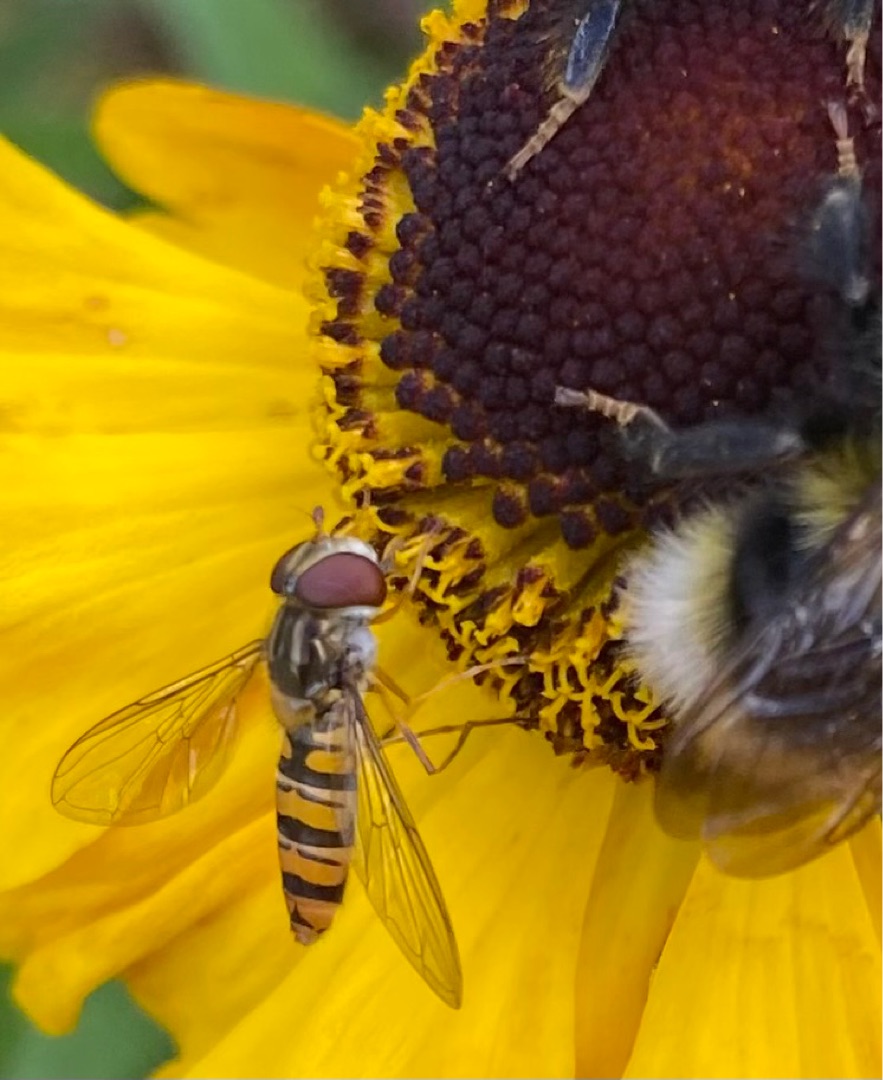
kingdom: Animalia
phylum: Arthropoda
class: Insecta
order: Diptera
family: Syrphidae
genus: Episyrphus
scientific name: Episyrphus balteatus
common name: Dobbeltbåndet svirreflue
